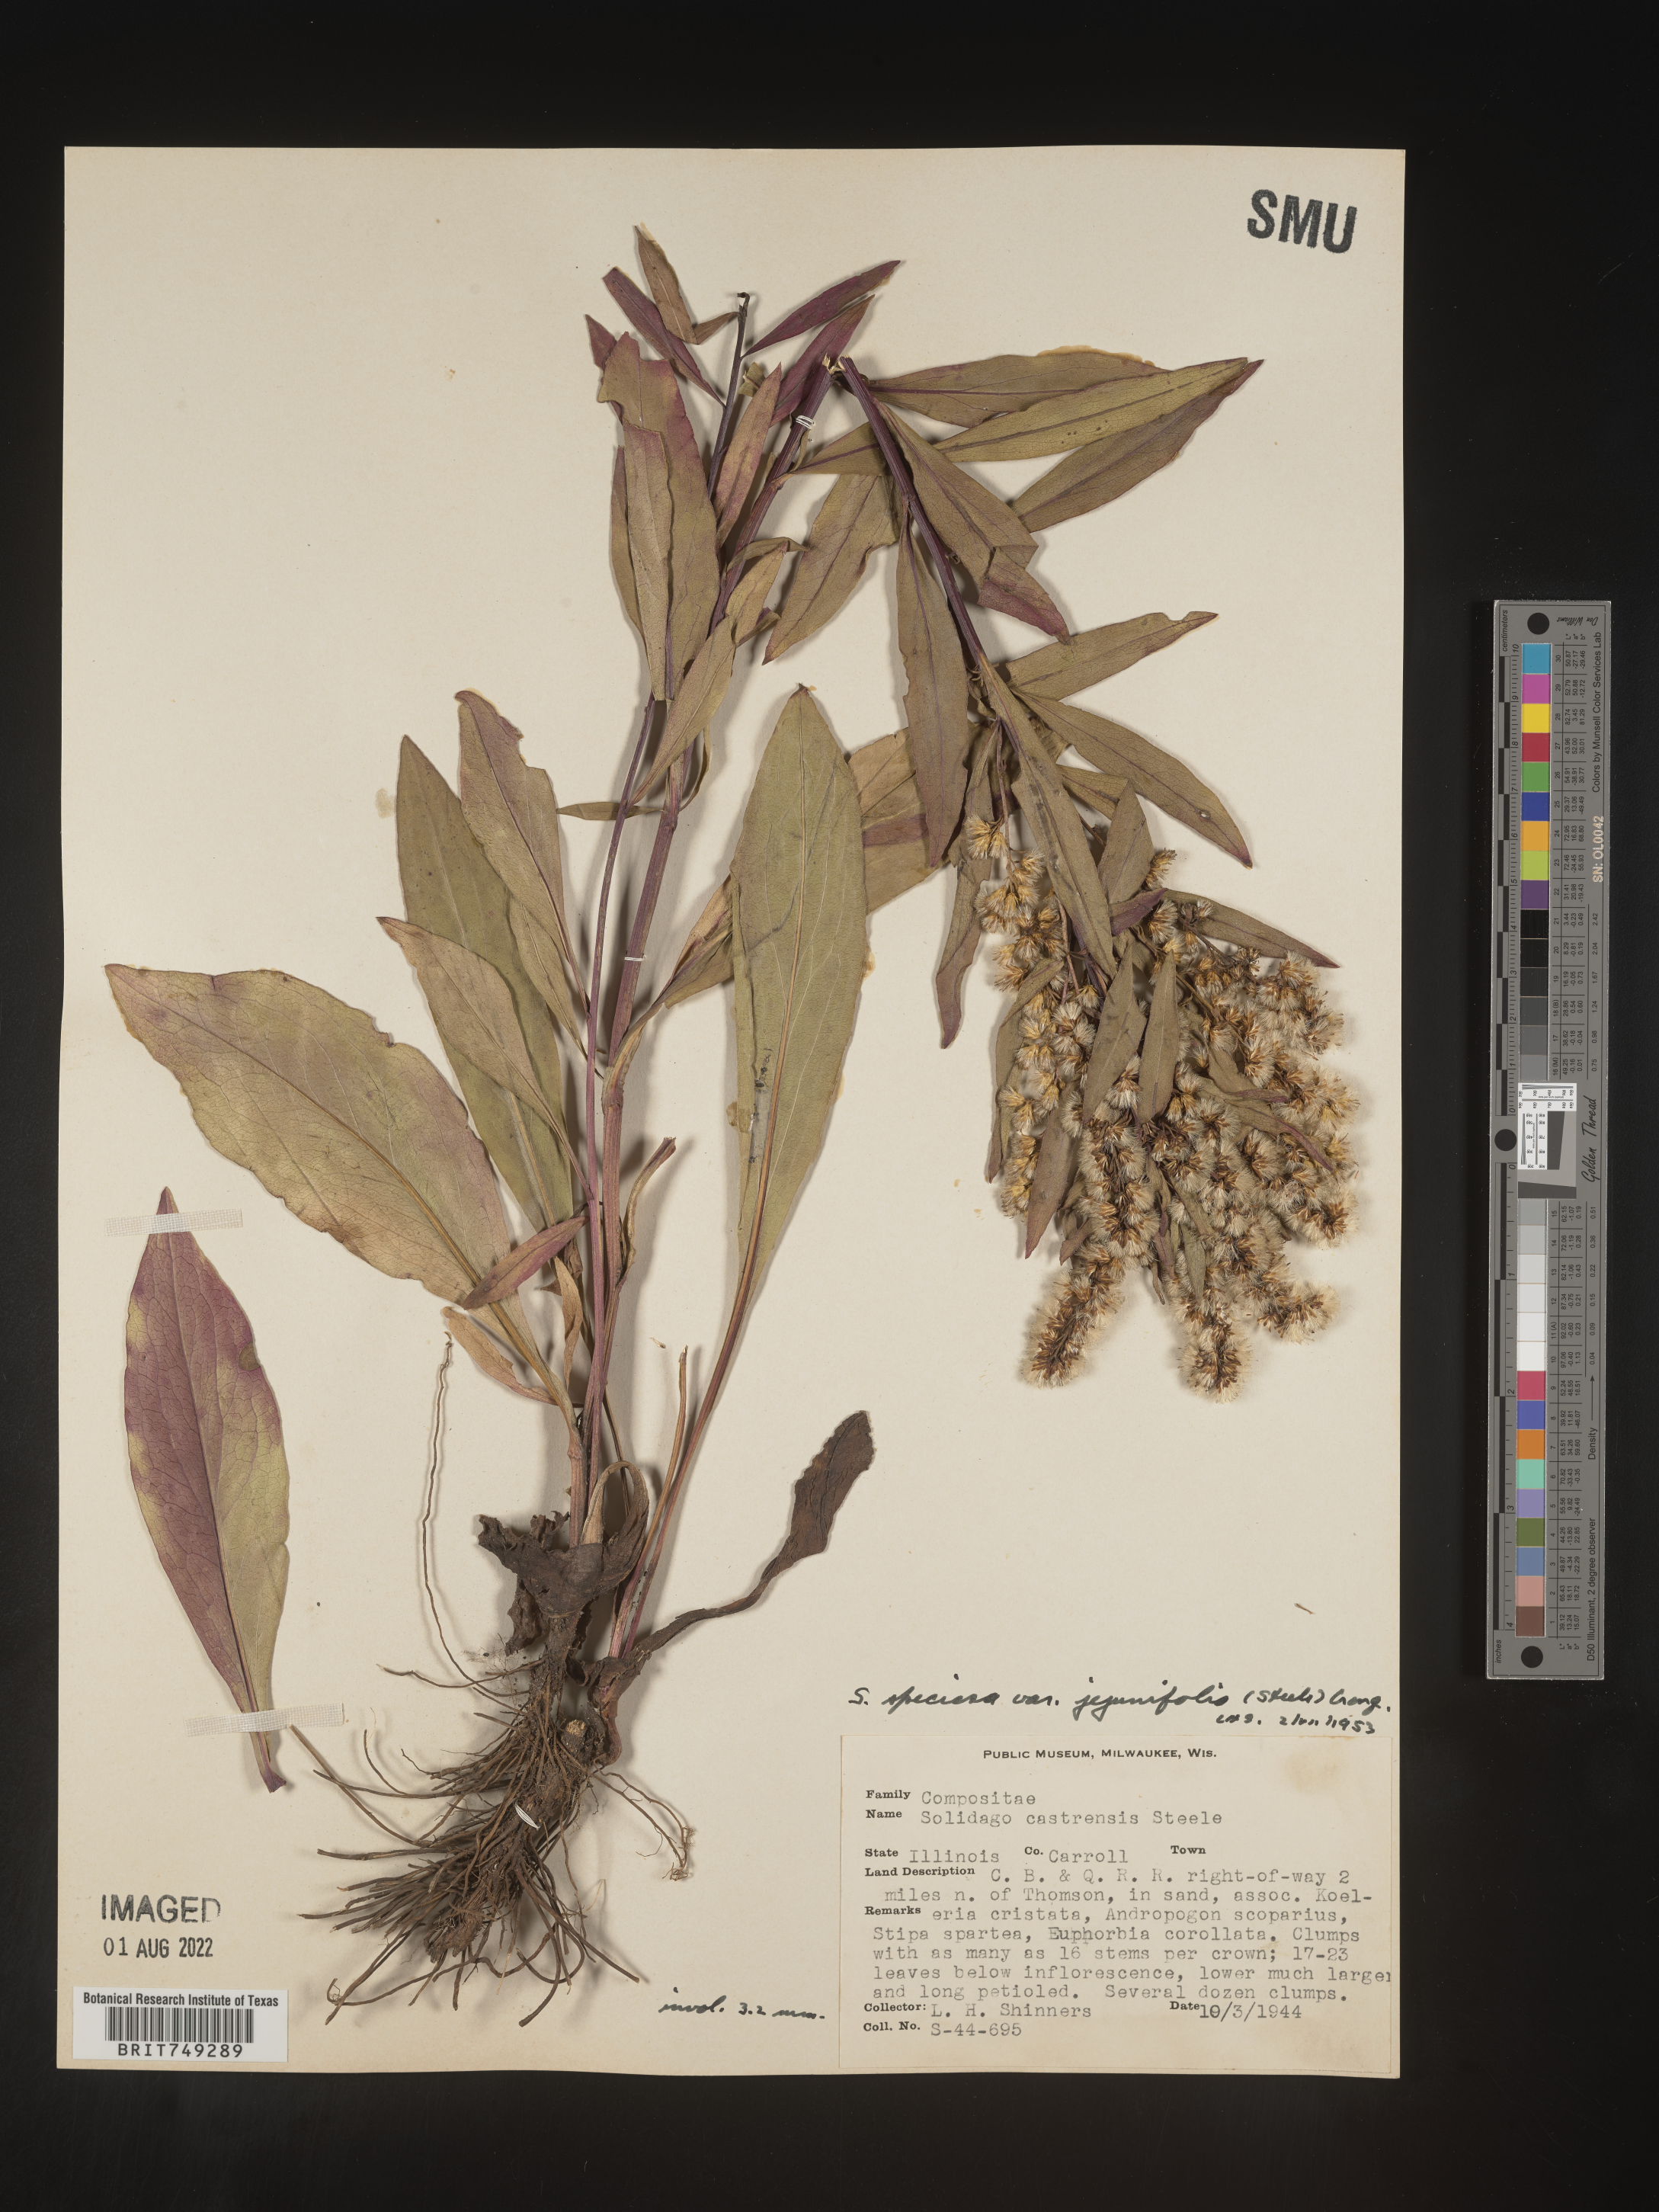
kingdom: Plantae
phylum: Tracheophyta
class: Magnoliopsida
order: Asterales
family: Asteraceae
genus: Solidago
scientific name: Solidago speciosa
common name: Showy goldenrod
